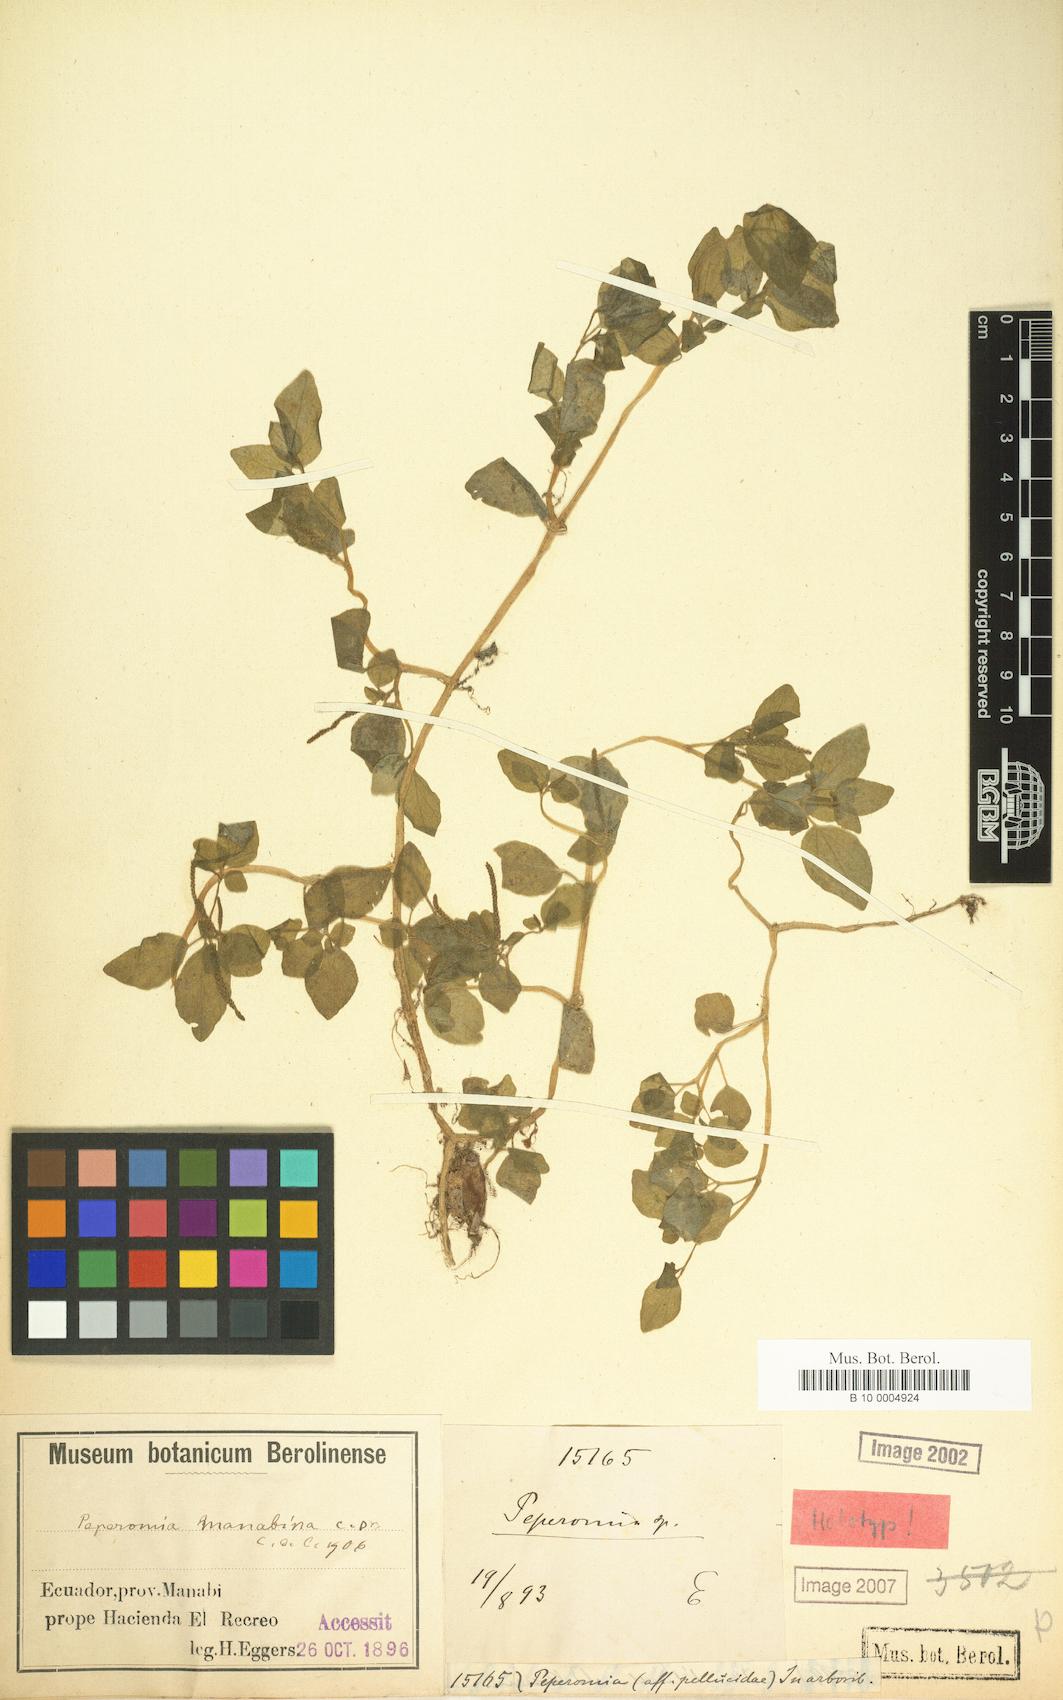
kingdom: Plantae
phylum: Tracheophyta
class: Magnoliopsida
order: Piperales
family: Piperaceae
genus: Peperomia
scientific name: Peperomia manabina
